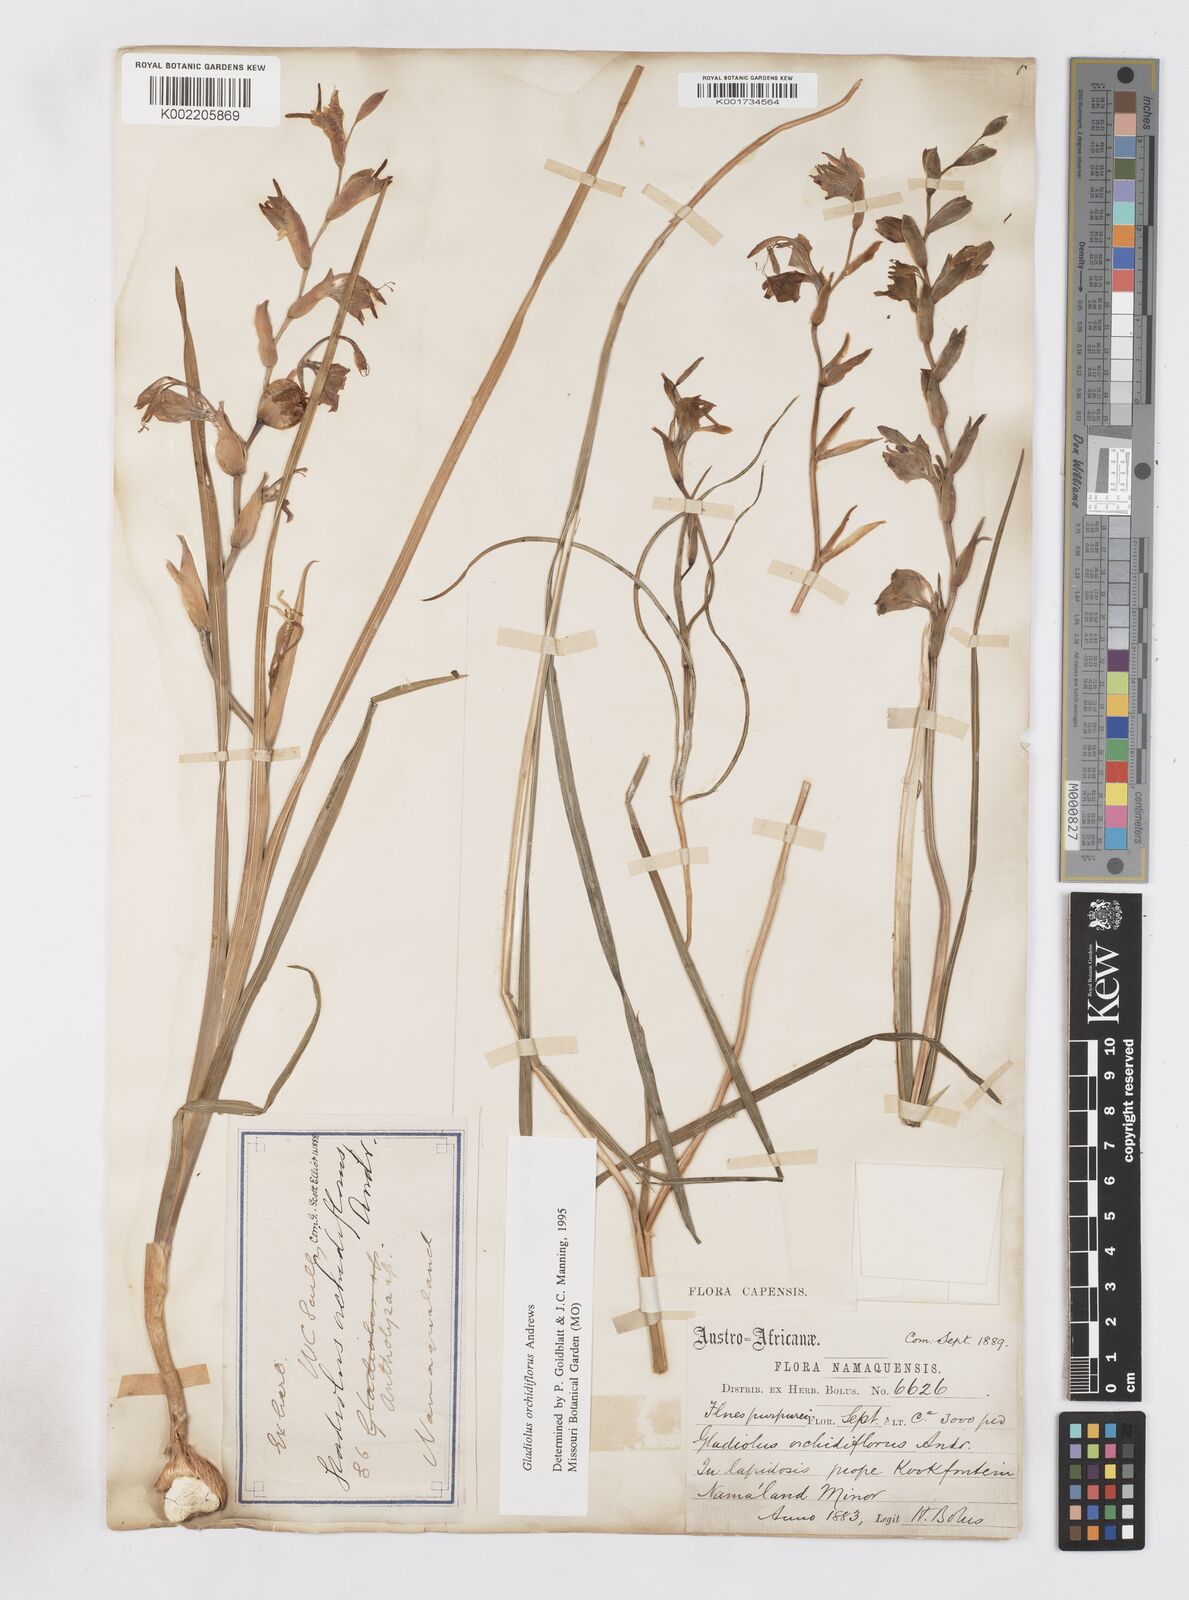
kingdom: Plantae
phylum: Tracheophyta
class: Liliopsida
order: Asparagales
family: Iridaceae
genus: Gladiolus
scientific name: Gladiolus orchidiflorus
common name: Gray kalkoentjie
